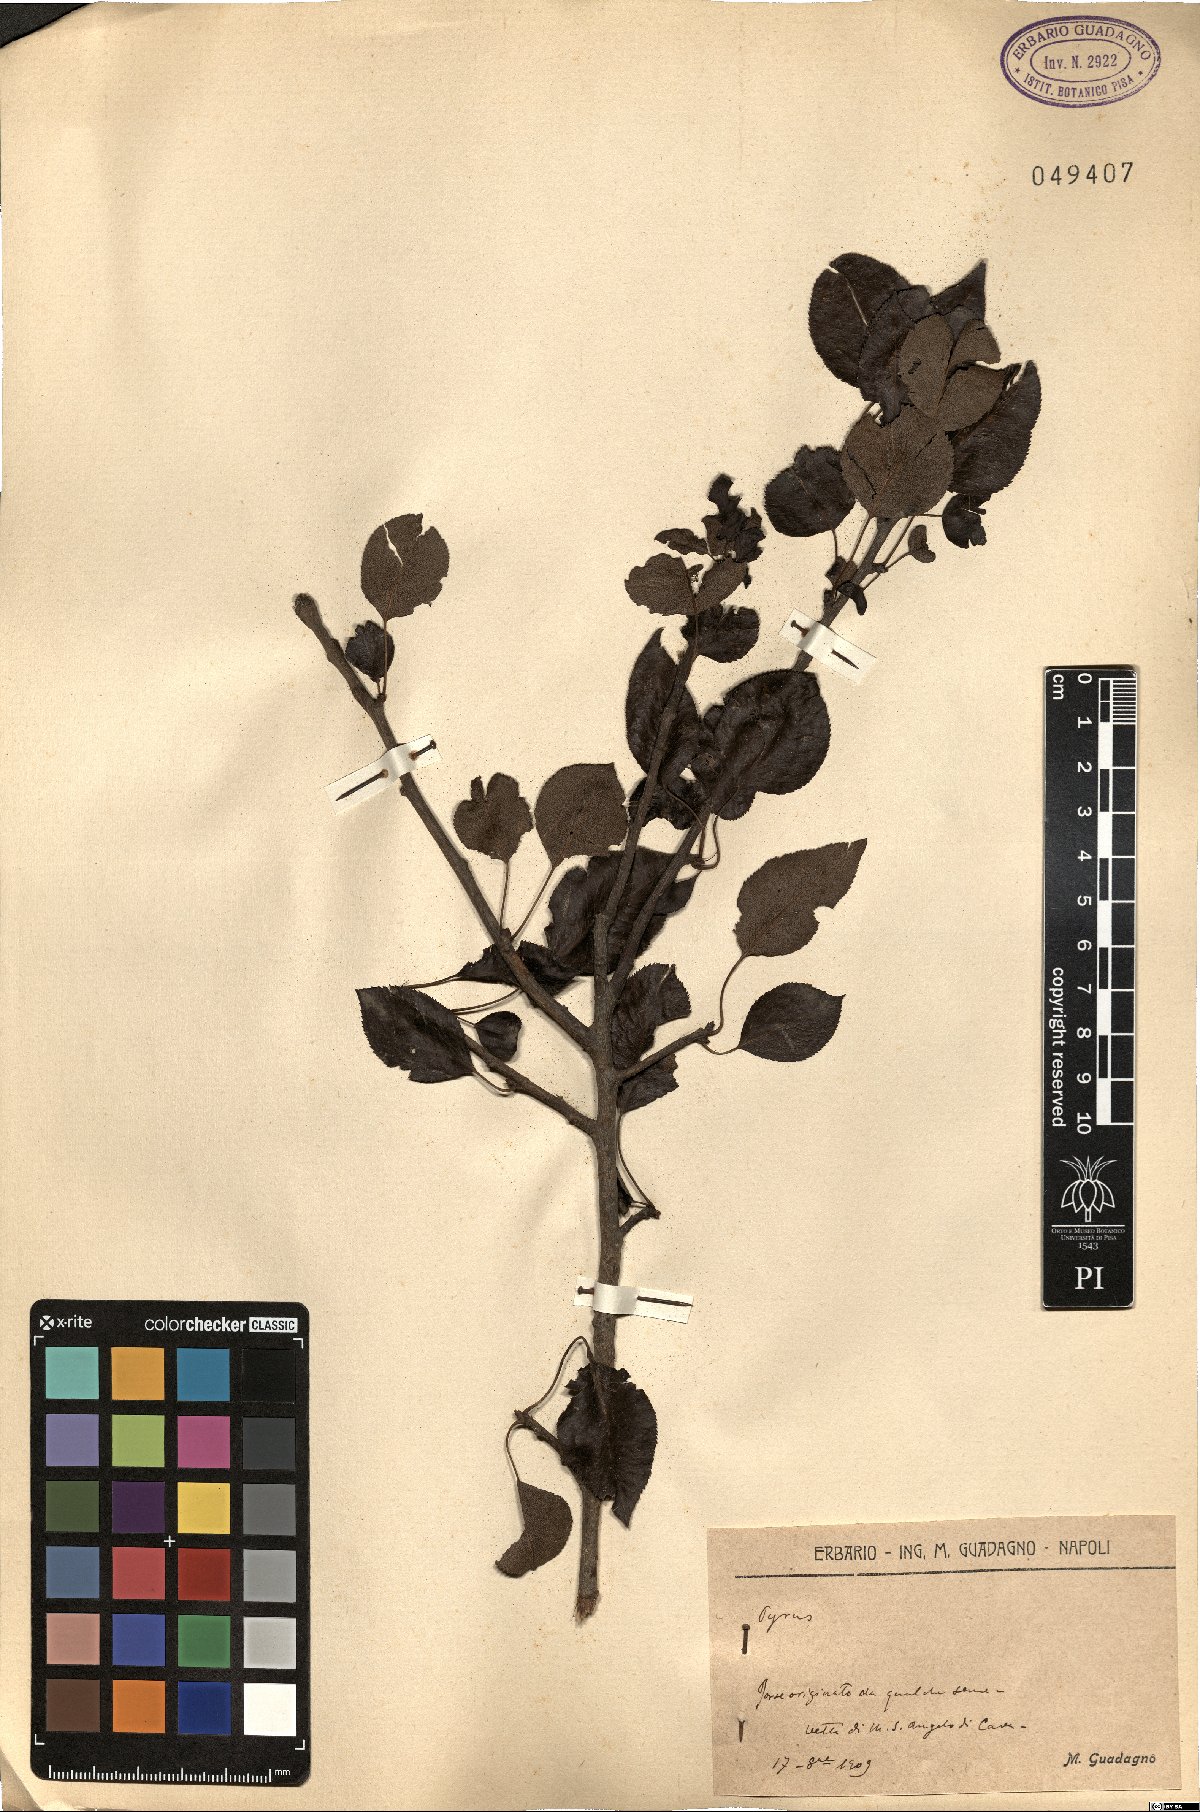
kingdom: Plantae
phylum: Tracheophyta
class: Magnoliopsida
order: Rosales
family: Rosaceae
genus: Pyrus
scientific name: Pyrus
